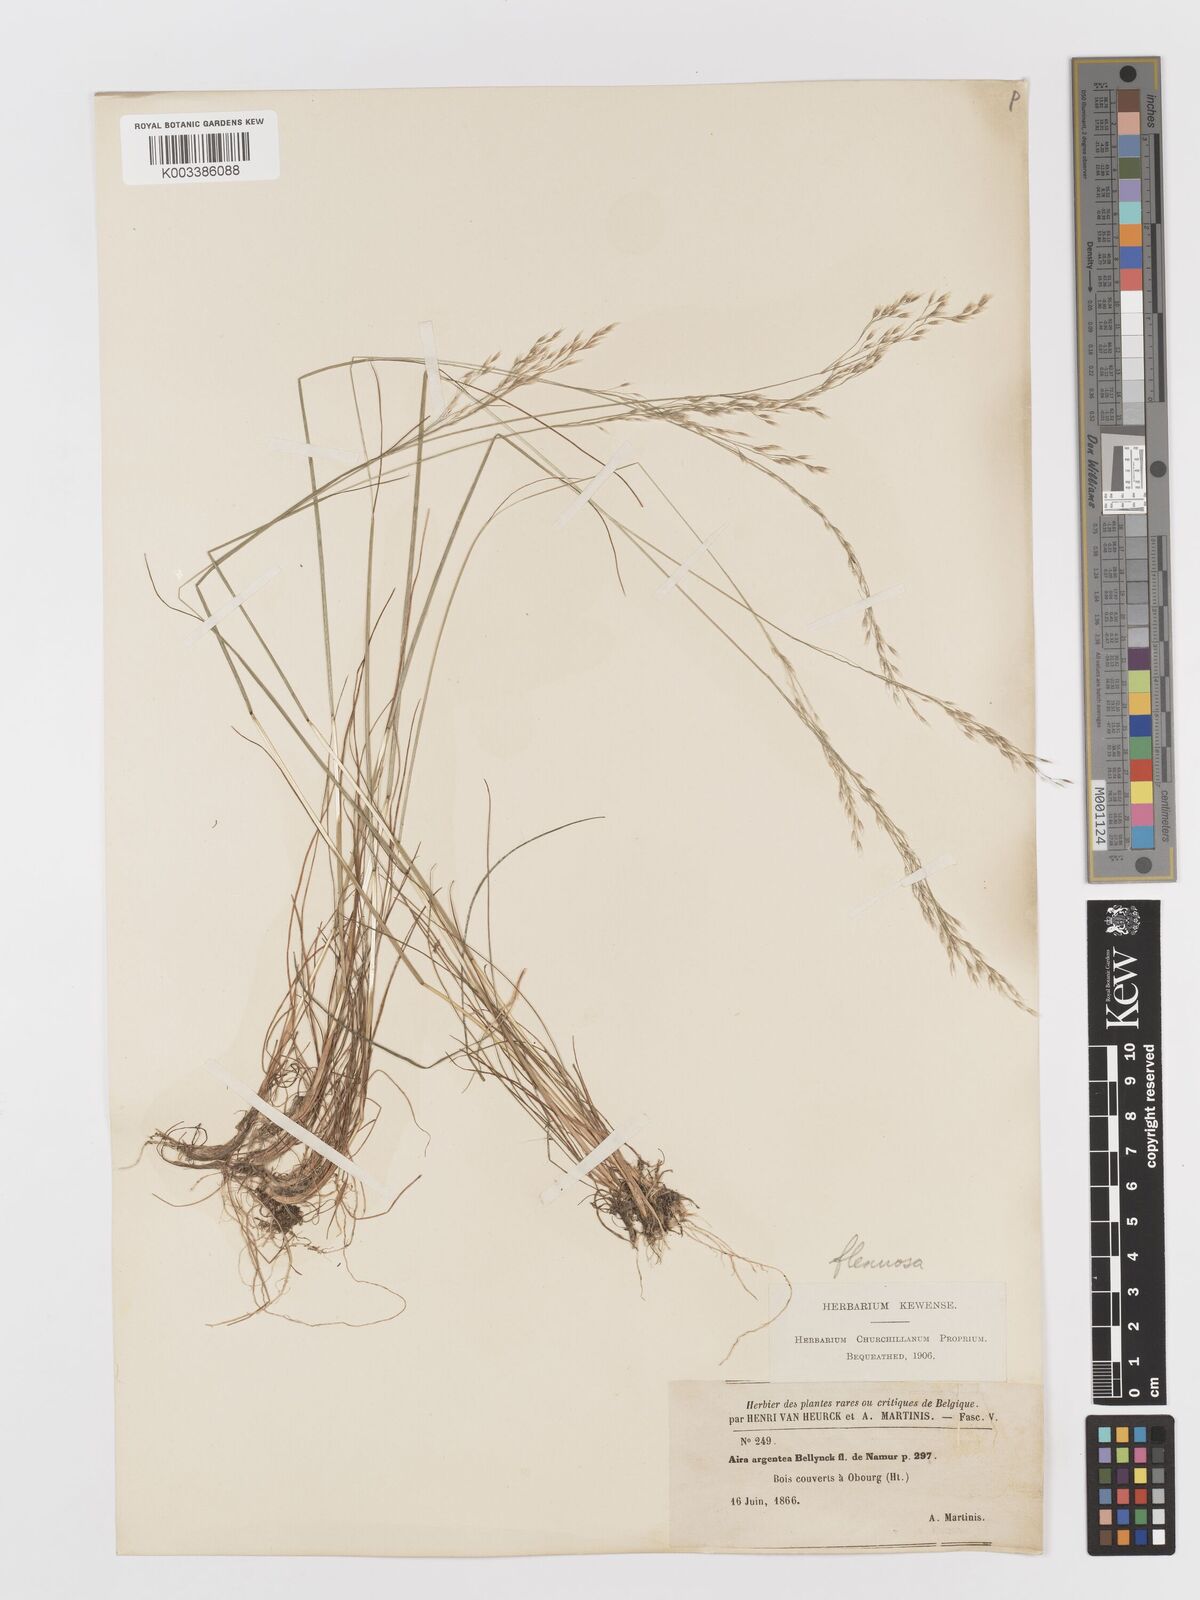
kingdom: Plantae
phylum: Tracheophyta
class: Liliopsida
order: Poales
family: Poaceae
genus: Avenella
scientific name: Avenella flexuosa
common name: Wavy hairgrass
